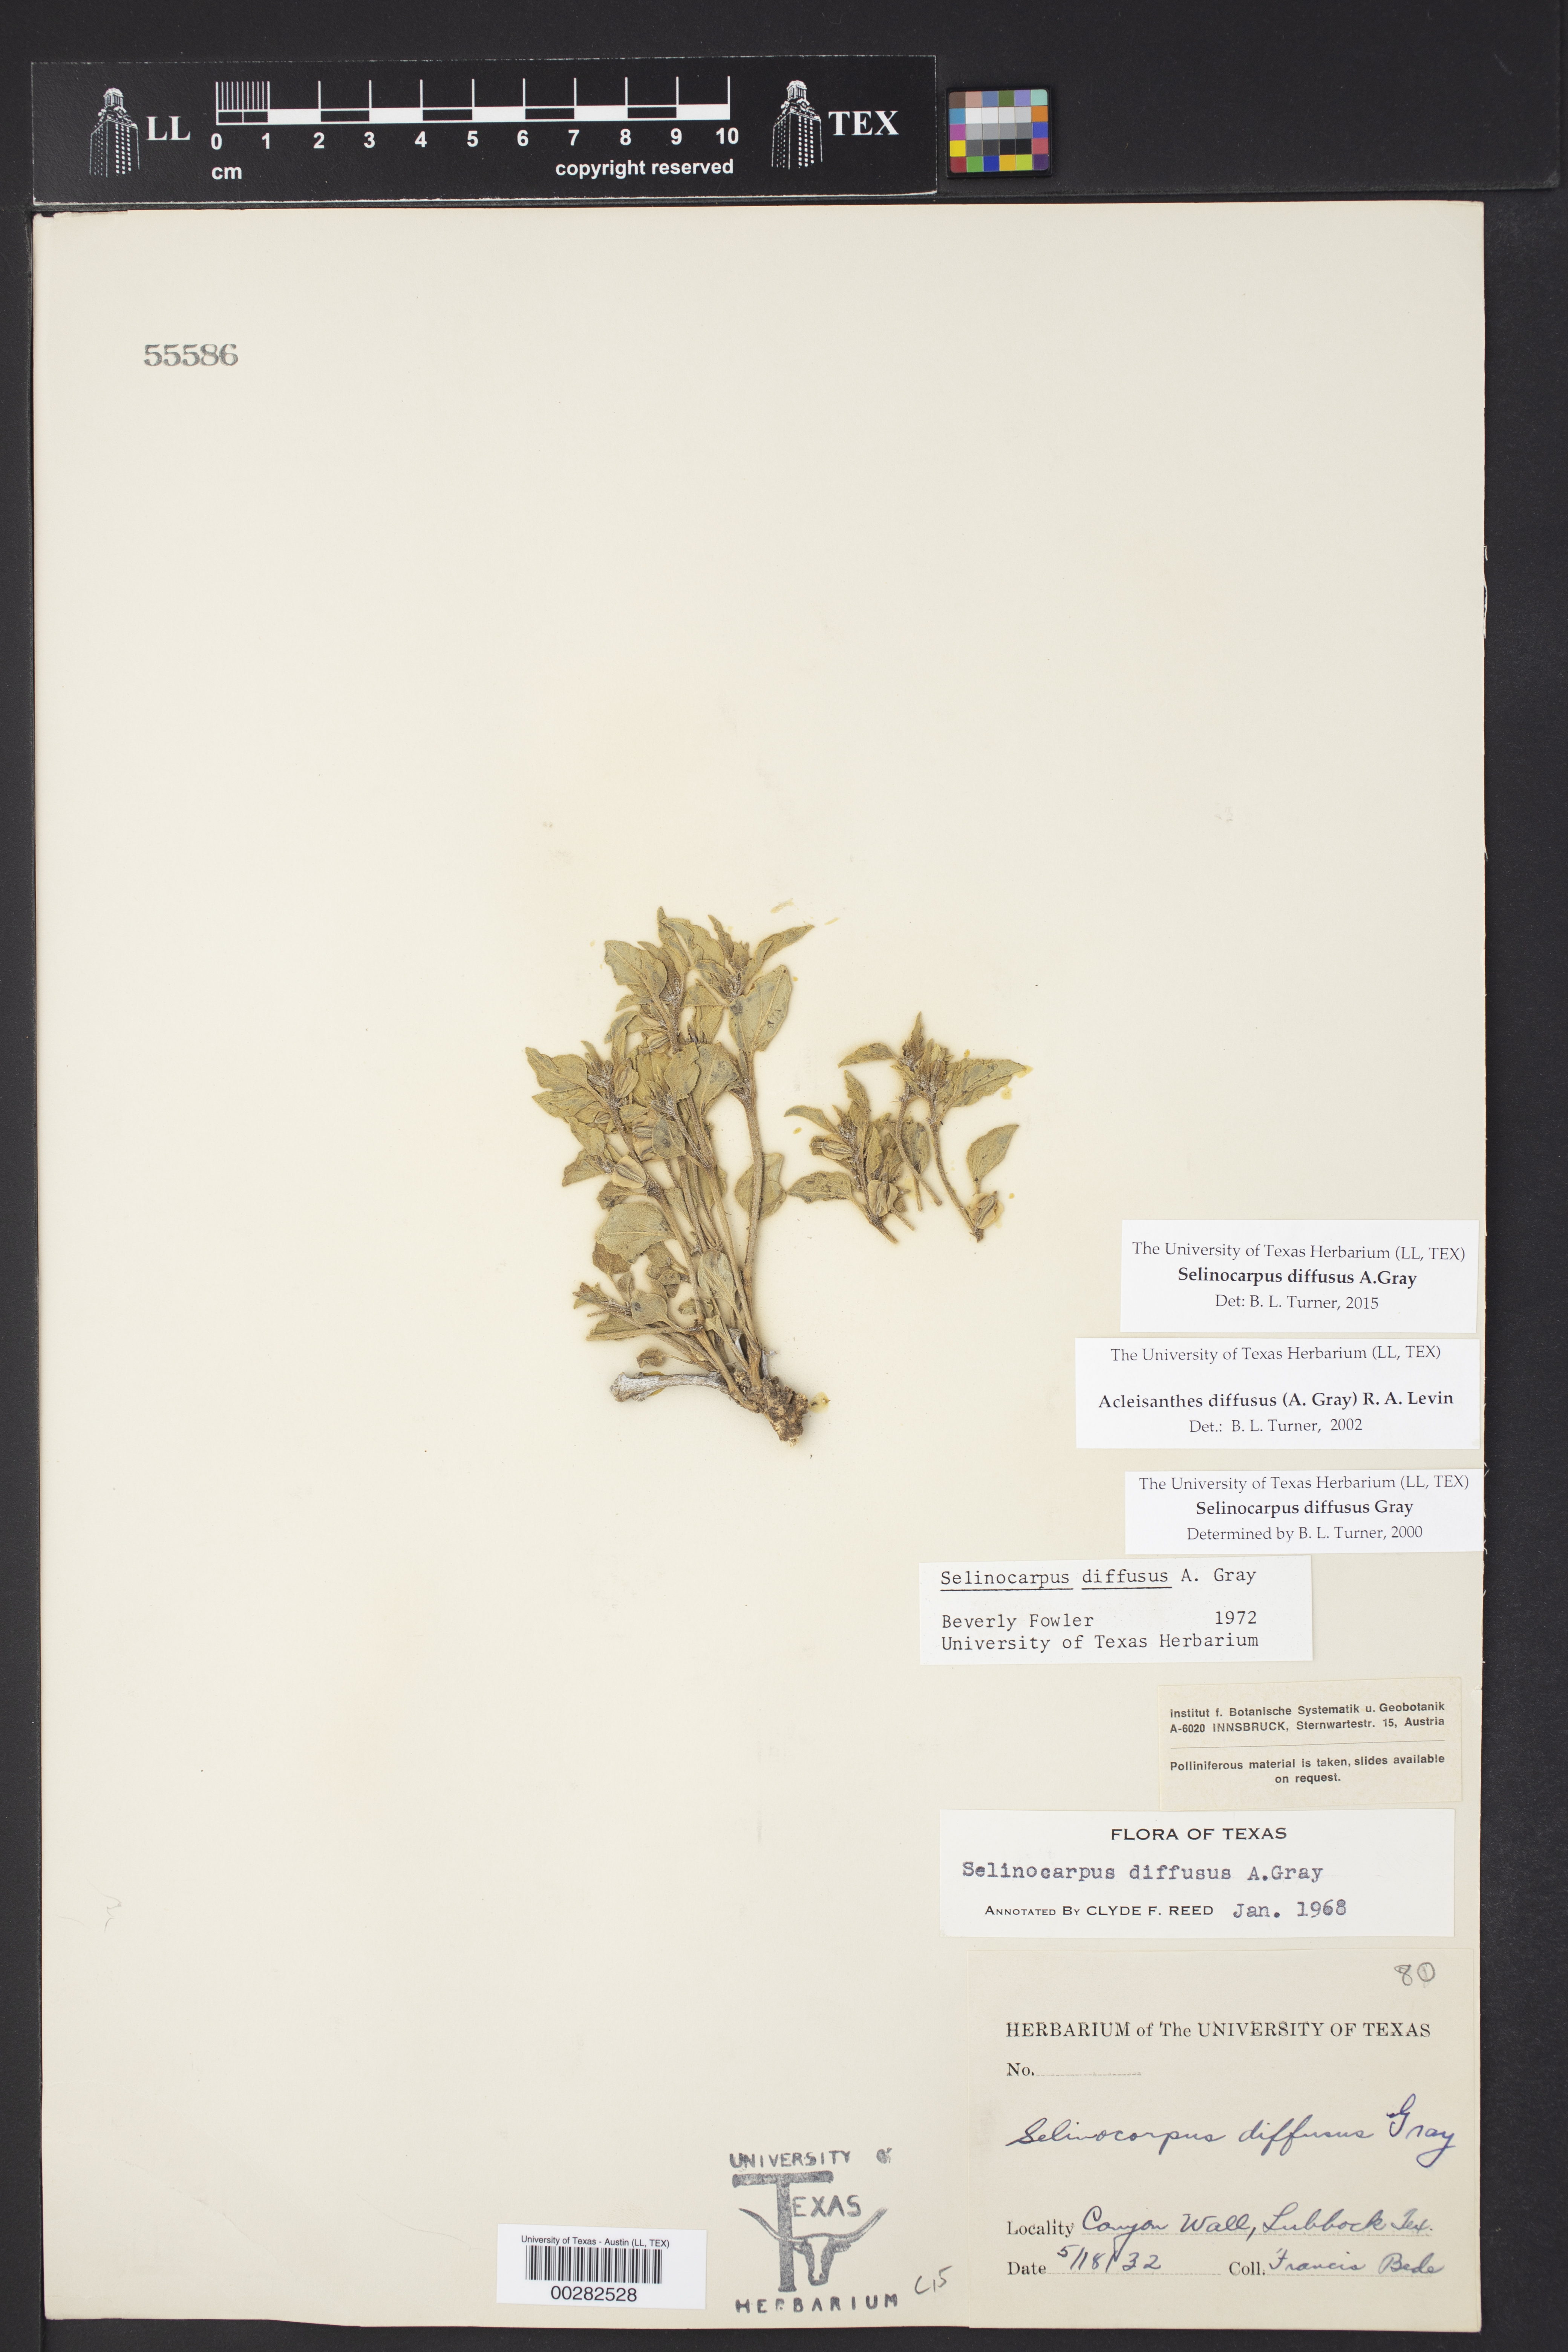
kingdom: Plantae
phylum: Tracheophyta
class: Magnoliopsida
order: Caryophyllales
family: Nyctaginaceae
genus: Acleisanthes
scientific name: Acleisanthes diffusa
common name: Spreading moonpod
